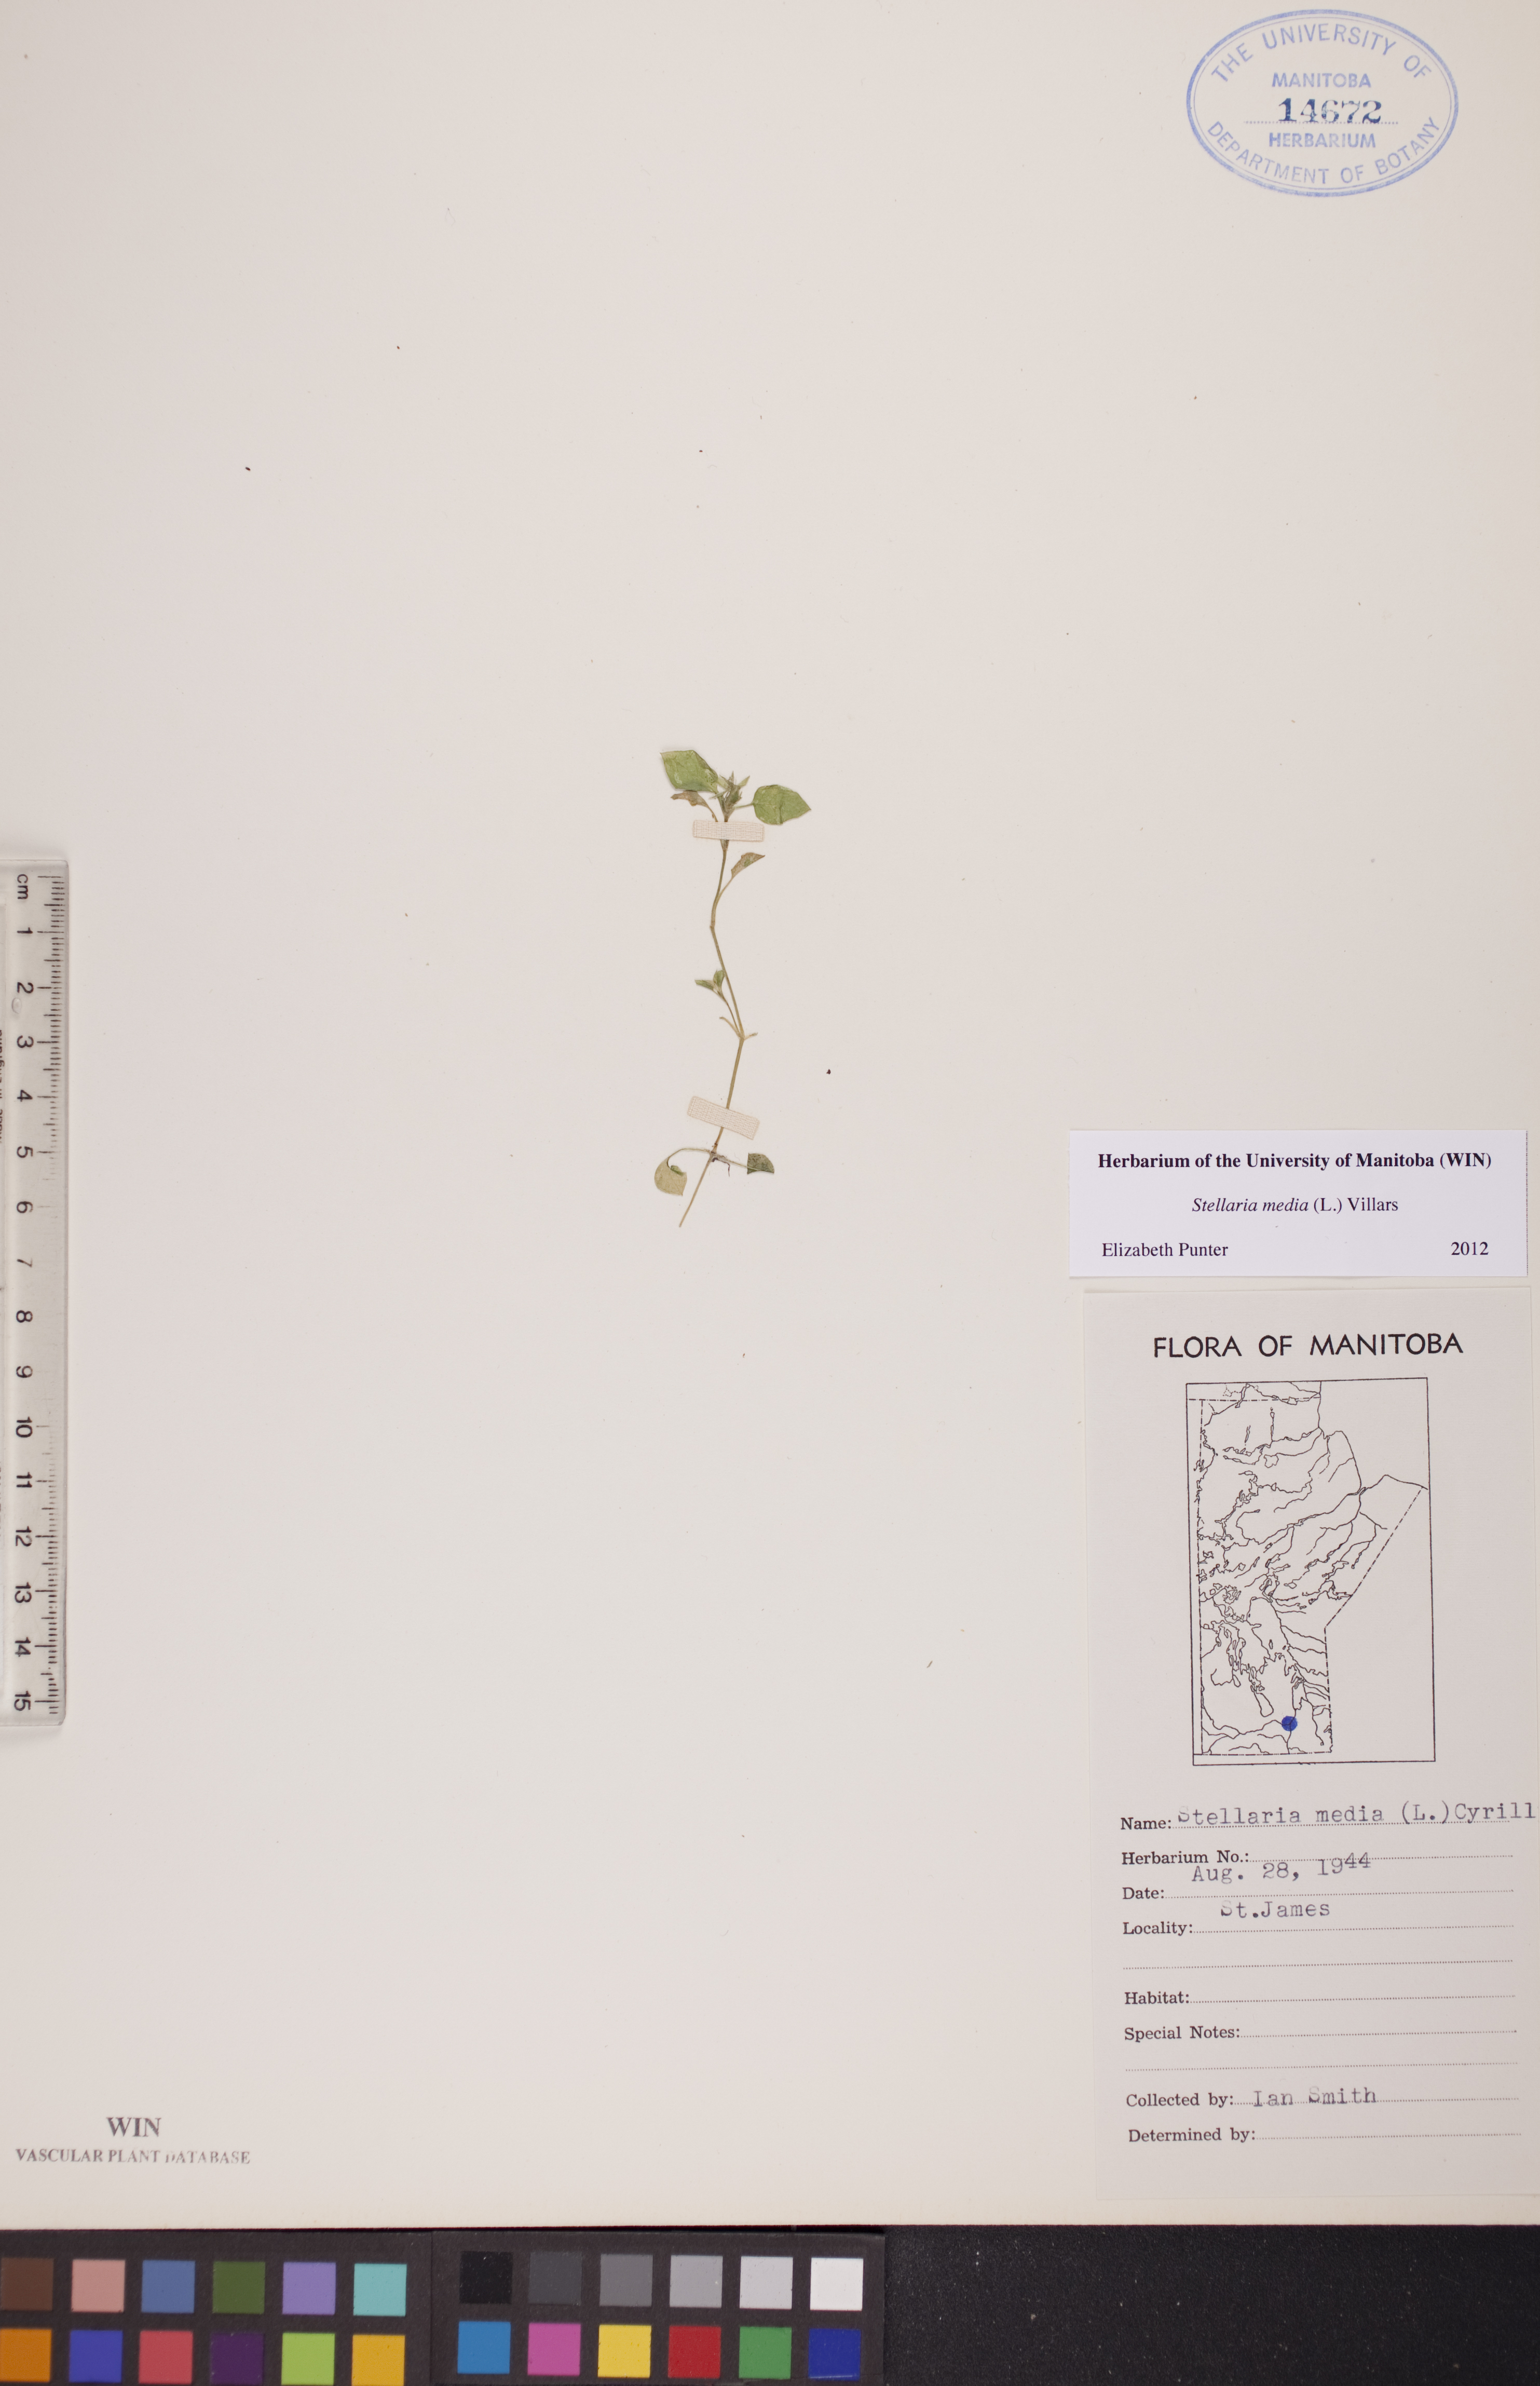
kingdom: Plantae
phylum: Tracheophyta
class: Magnoliopsida
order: Caryophyllales
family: Caryophyllaceae
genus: Stellaria
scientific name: Stellaria media
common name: Common chickweed
